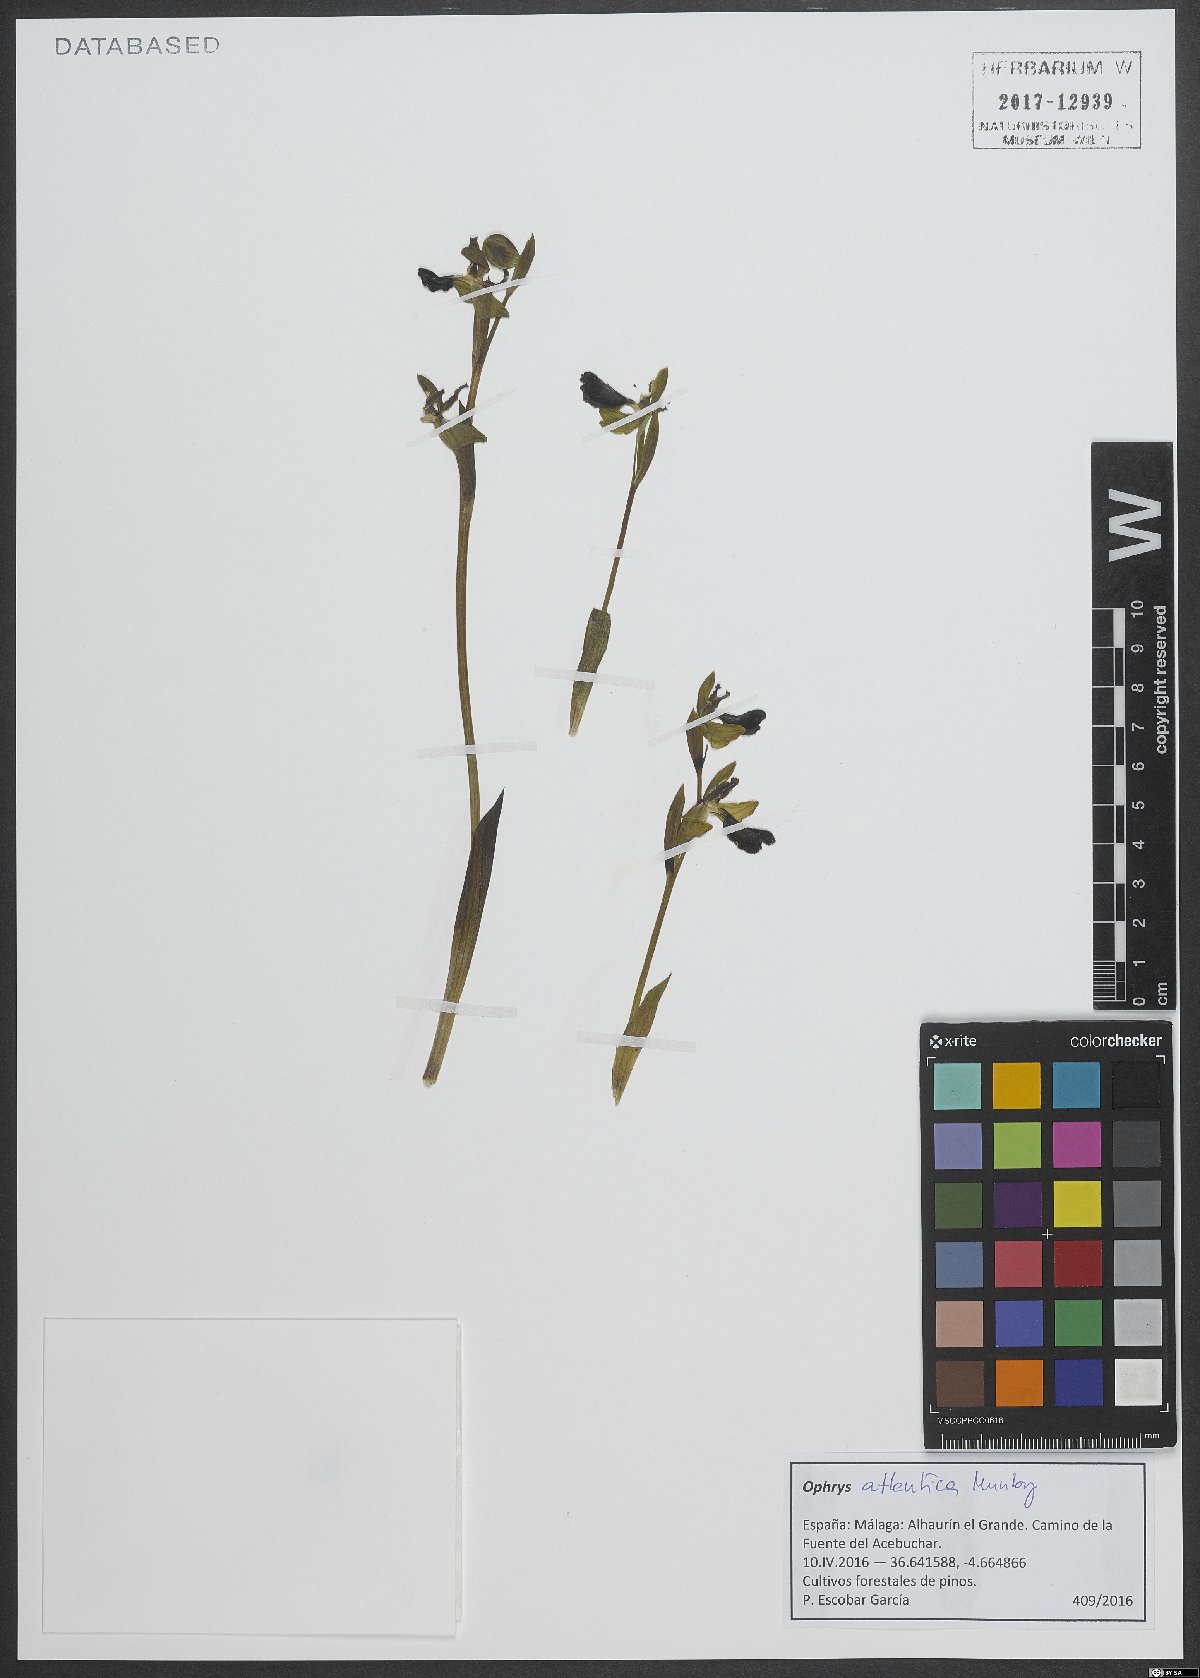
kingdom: Plantae
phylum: Tracheophyta
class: Liliopsida
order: Asparagales
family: Orchidaceae
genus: Ophrys
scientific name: Ophrys atlantica
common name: Atlantic ophrys
